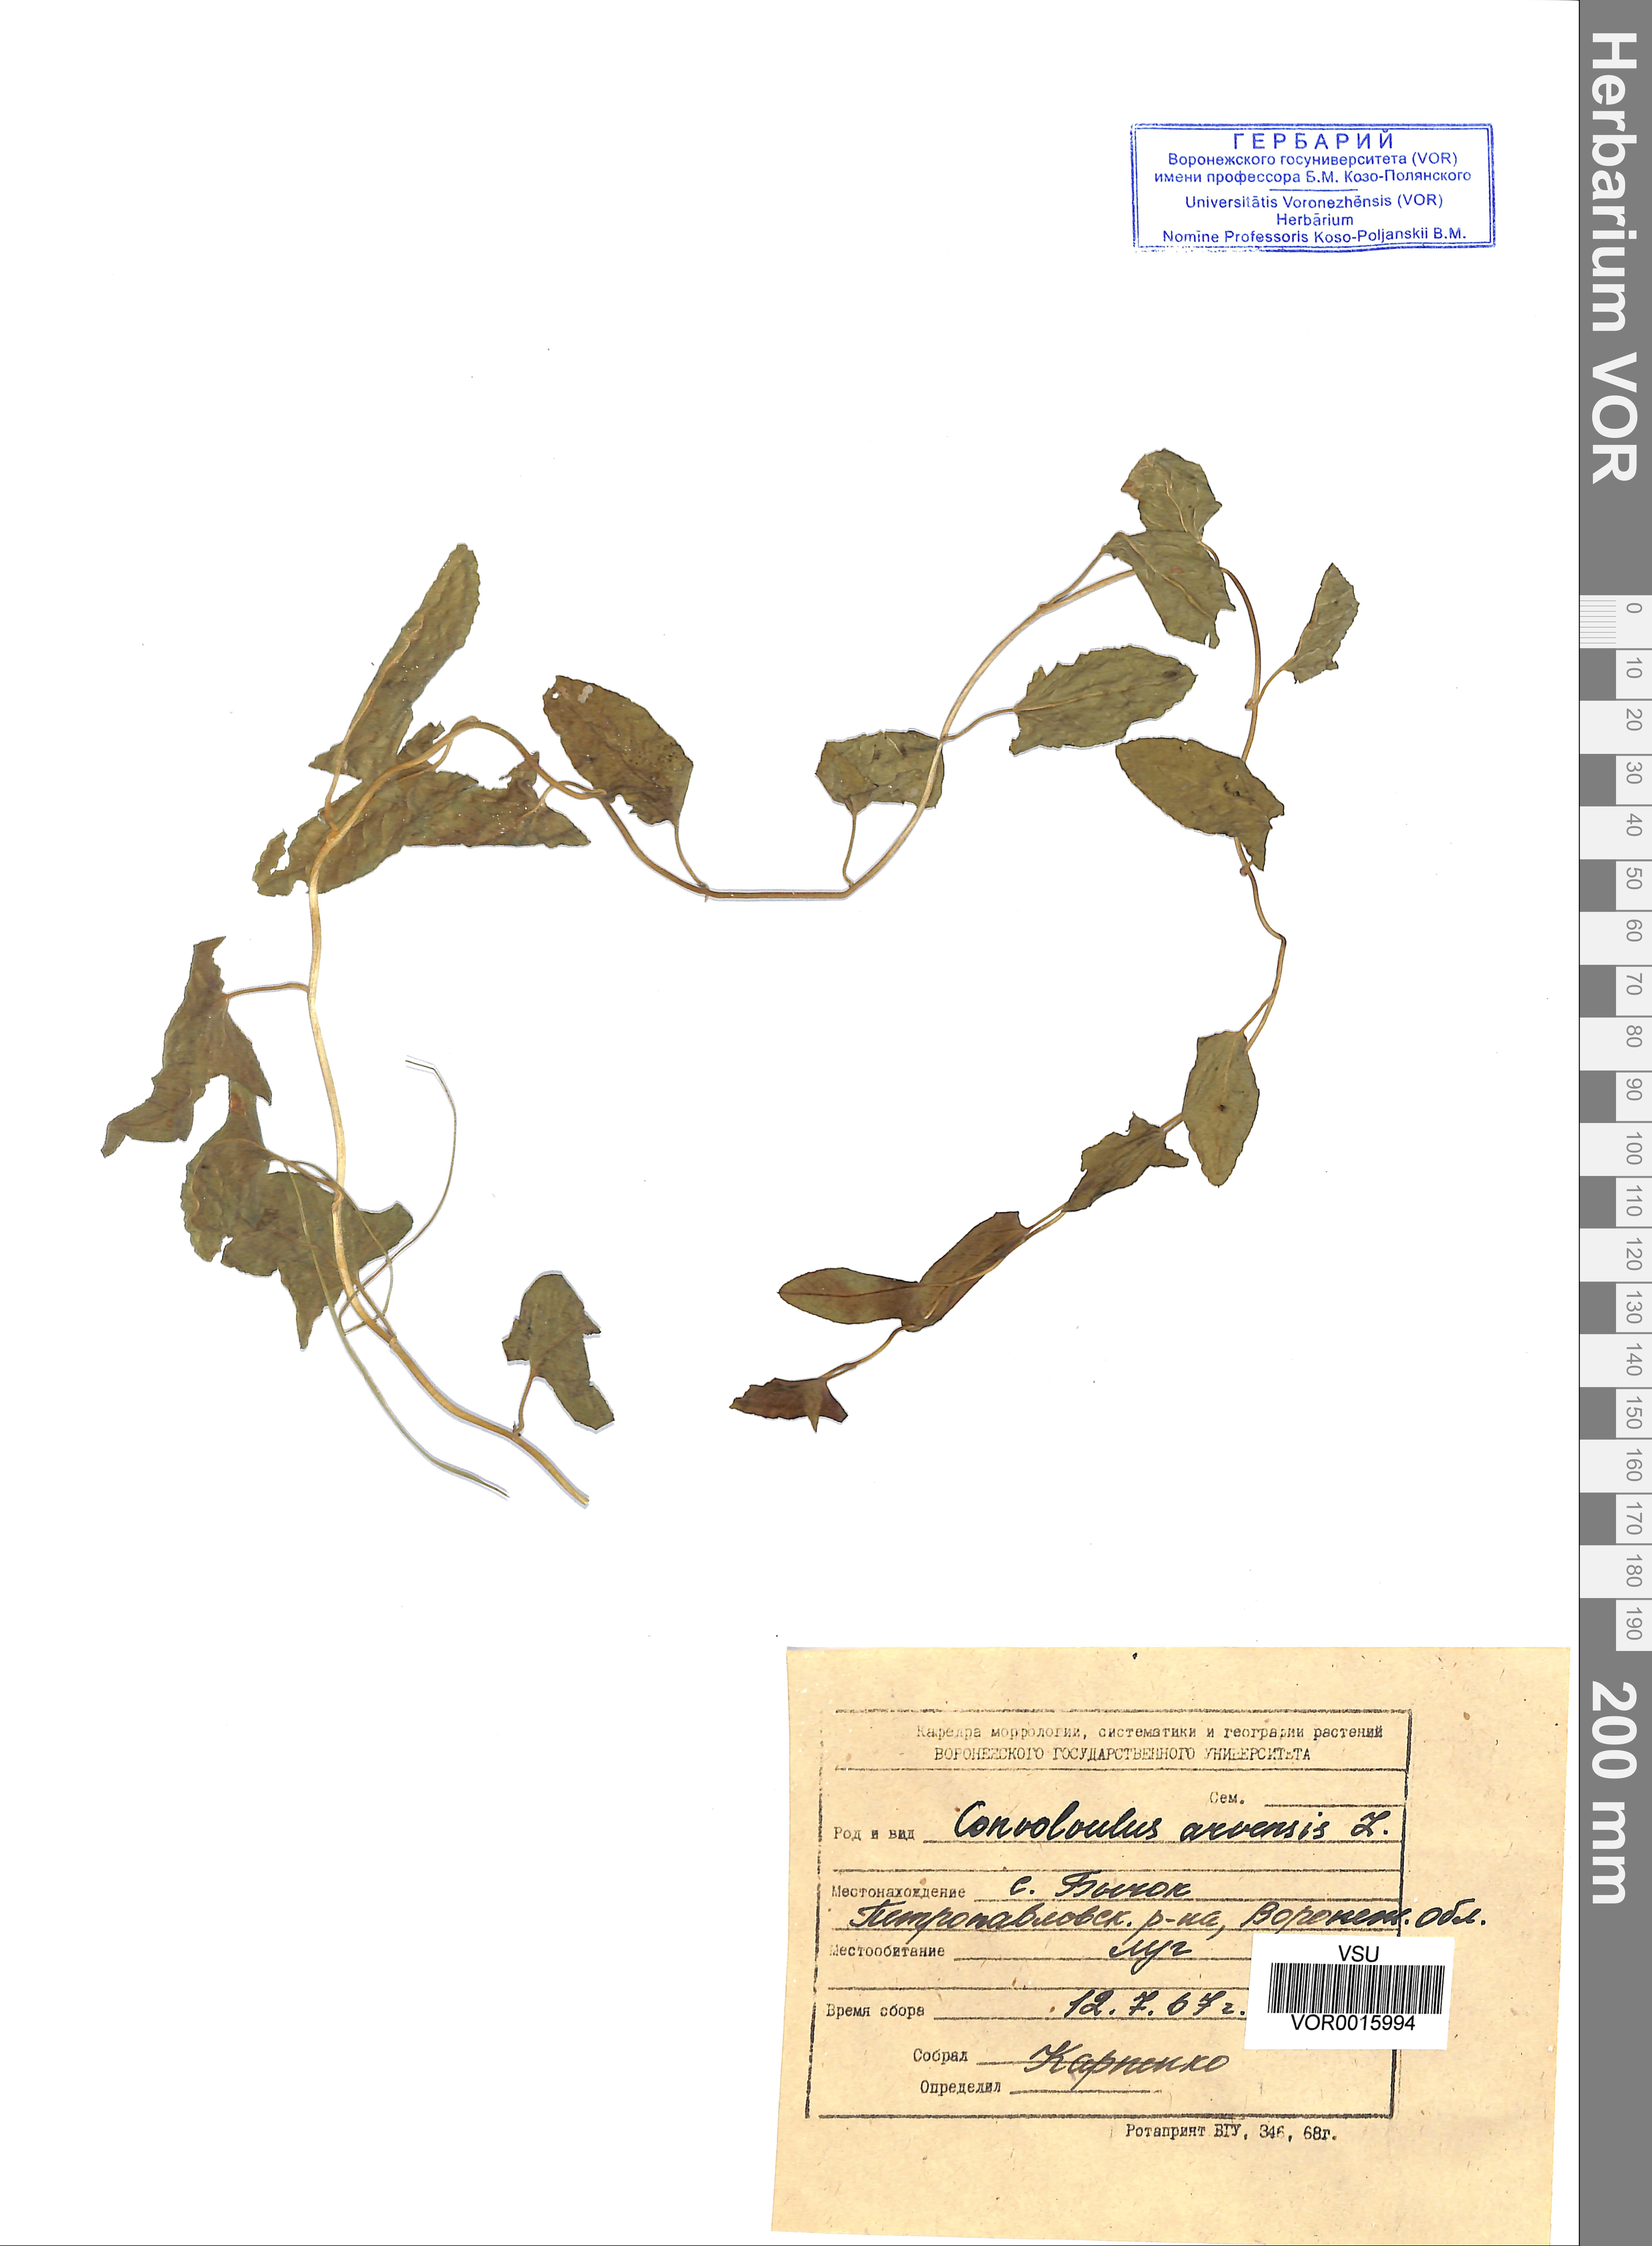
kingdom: Plantae
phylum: Tracheophyta
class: Magnoliopsida
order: Solanales
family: Convolvulaceae
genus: Convolvulus
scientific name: Convolvulus arvensis
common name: Field bindweed
